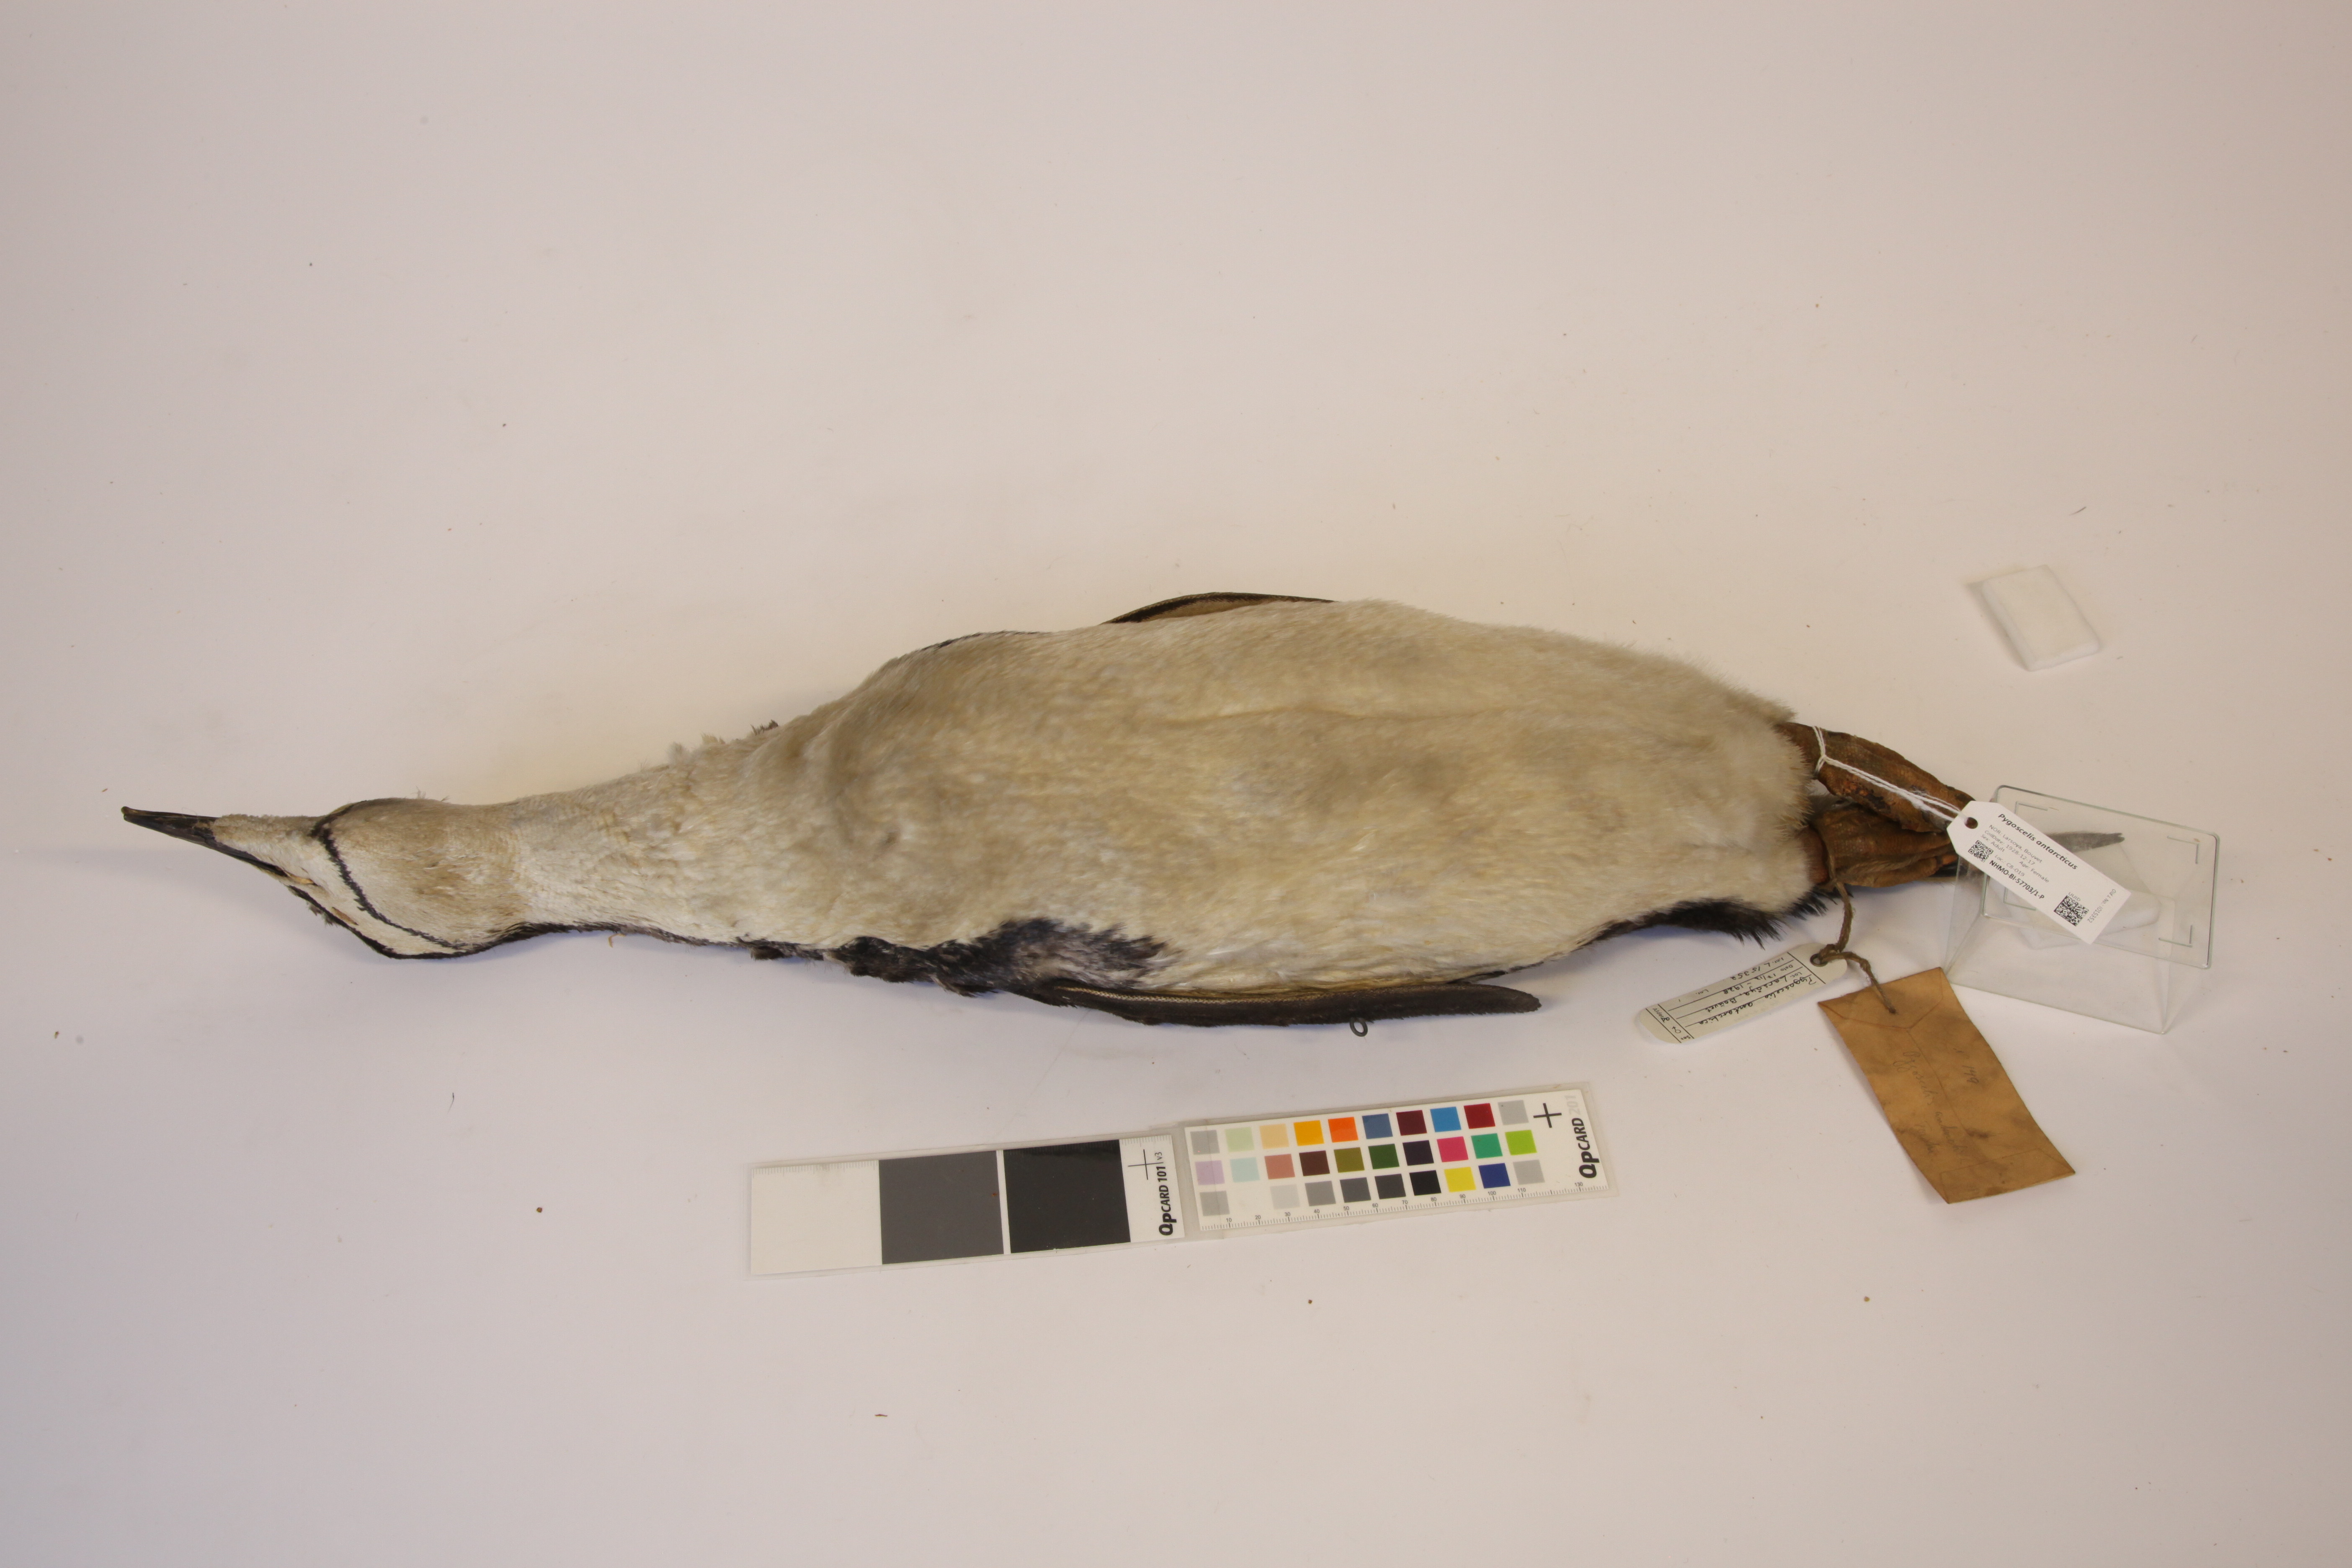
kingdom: Animalia
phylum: Chordata
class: Aves
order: Sphenisciformes
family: Spheniscidae
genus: Pygoscelis
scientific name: Pygoscelis antarcticus
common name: Chinstrap penguin
